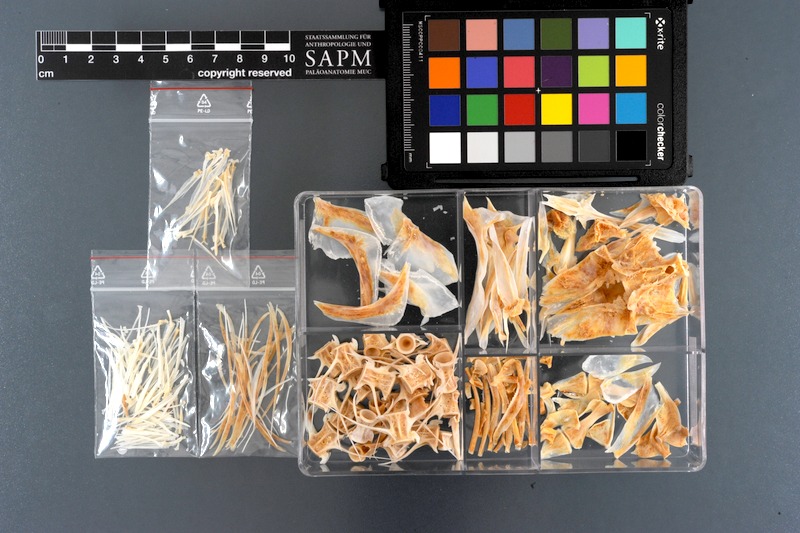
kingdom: Animalia
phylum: Chordata
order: Perciformes
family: Carangidae
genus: Elagatis
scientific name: Elagatis bipinnulata
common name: Rainbow runner
